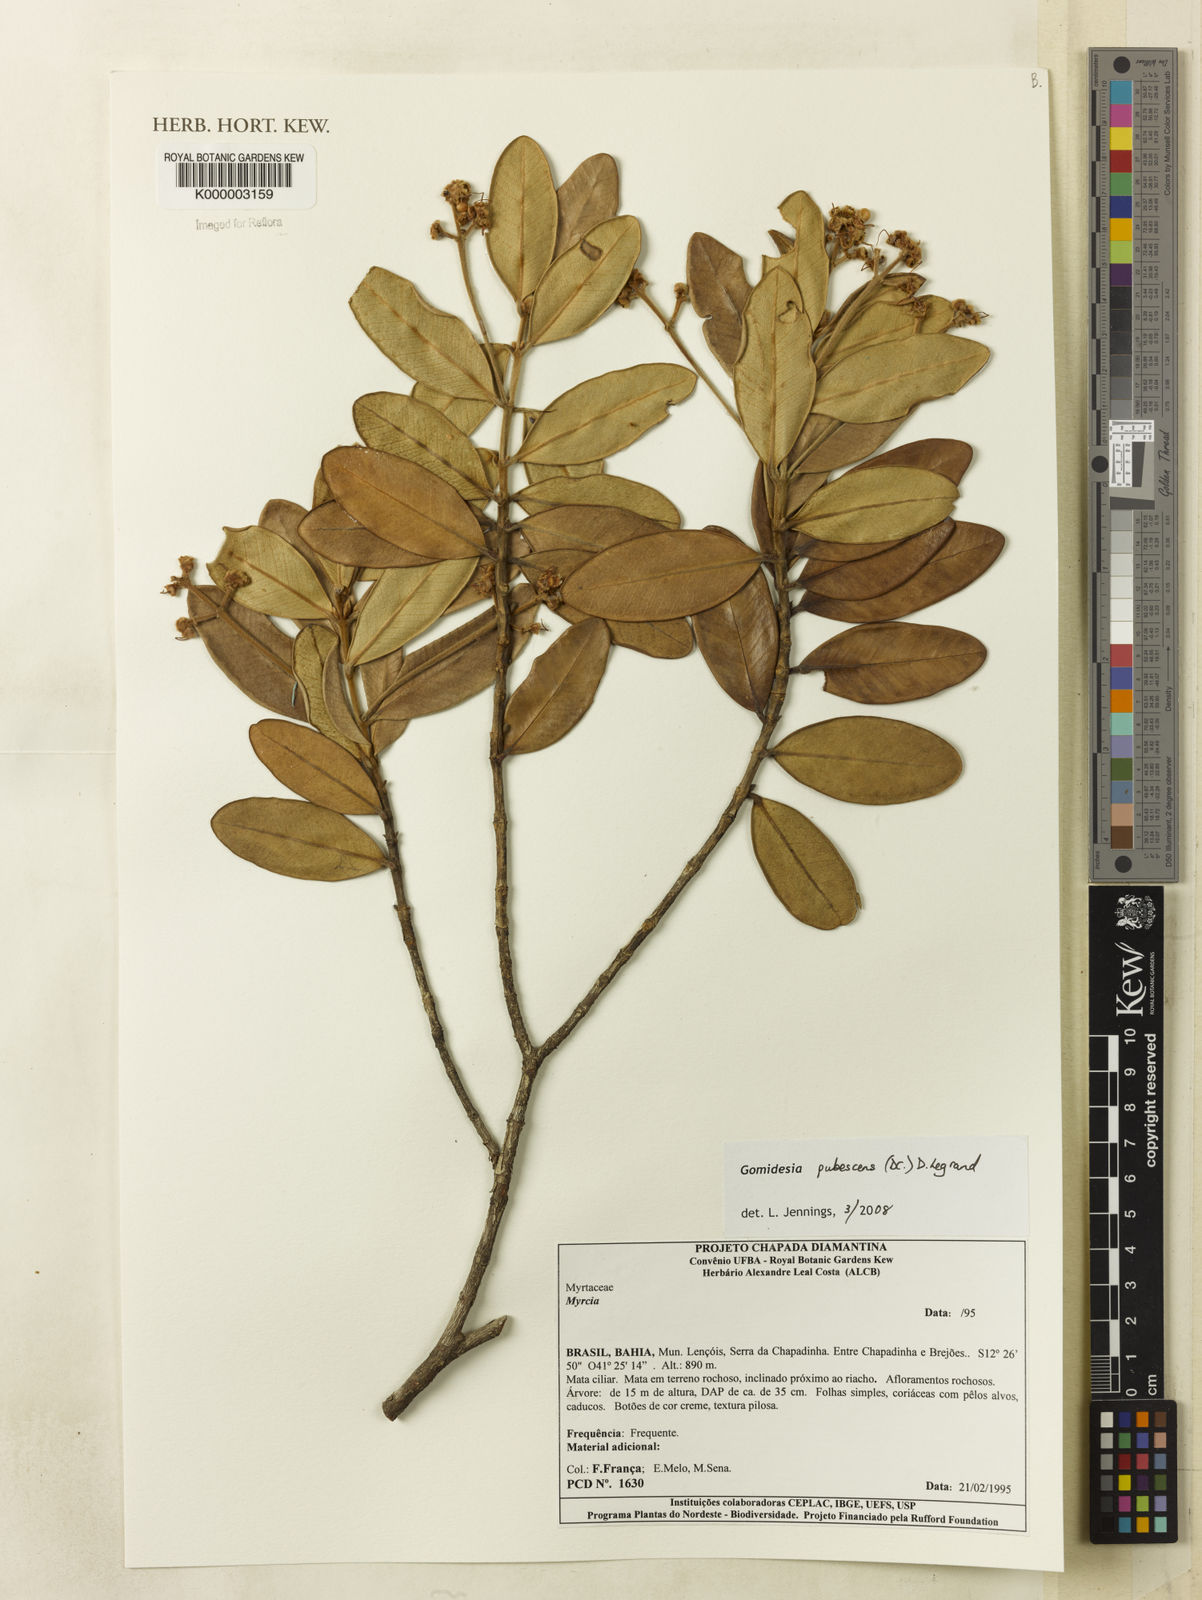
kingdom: Plantae
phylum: Tracheophyta
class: Magnoliopsida
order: Myrtales
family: Myrtaceae
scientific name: Myrtaceae
